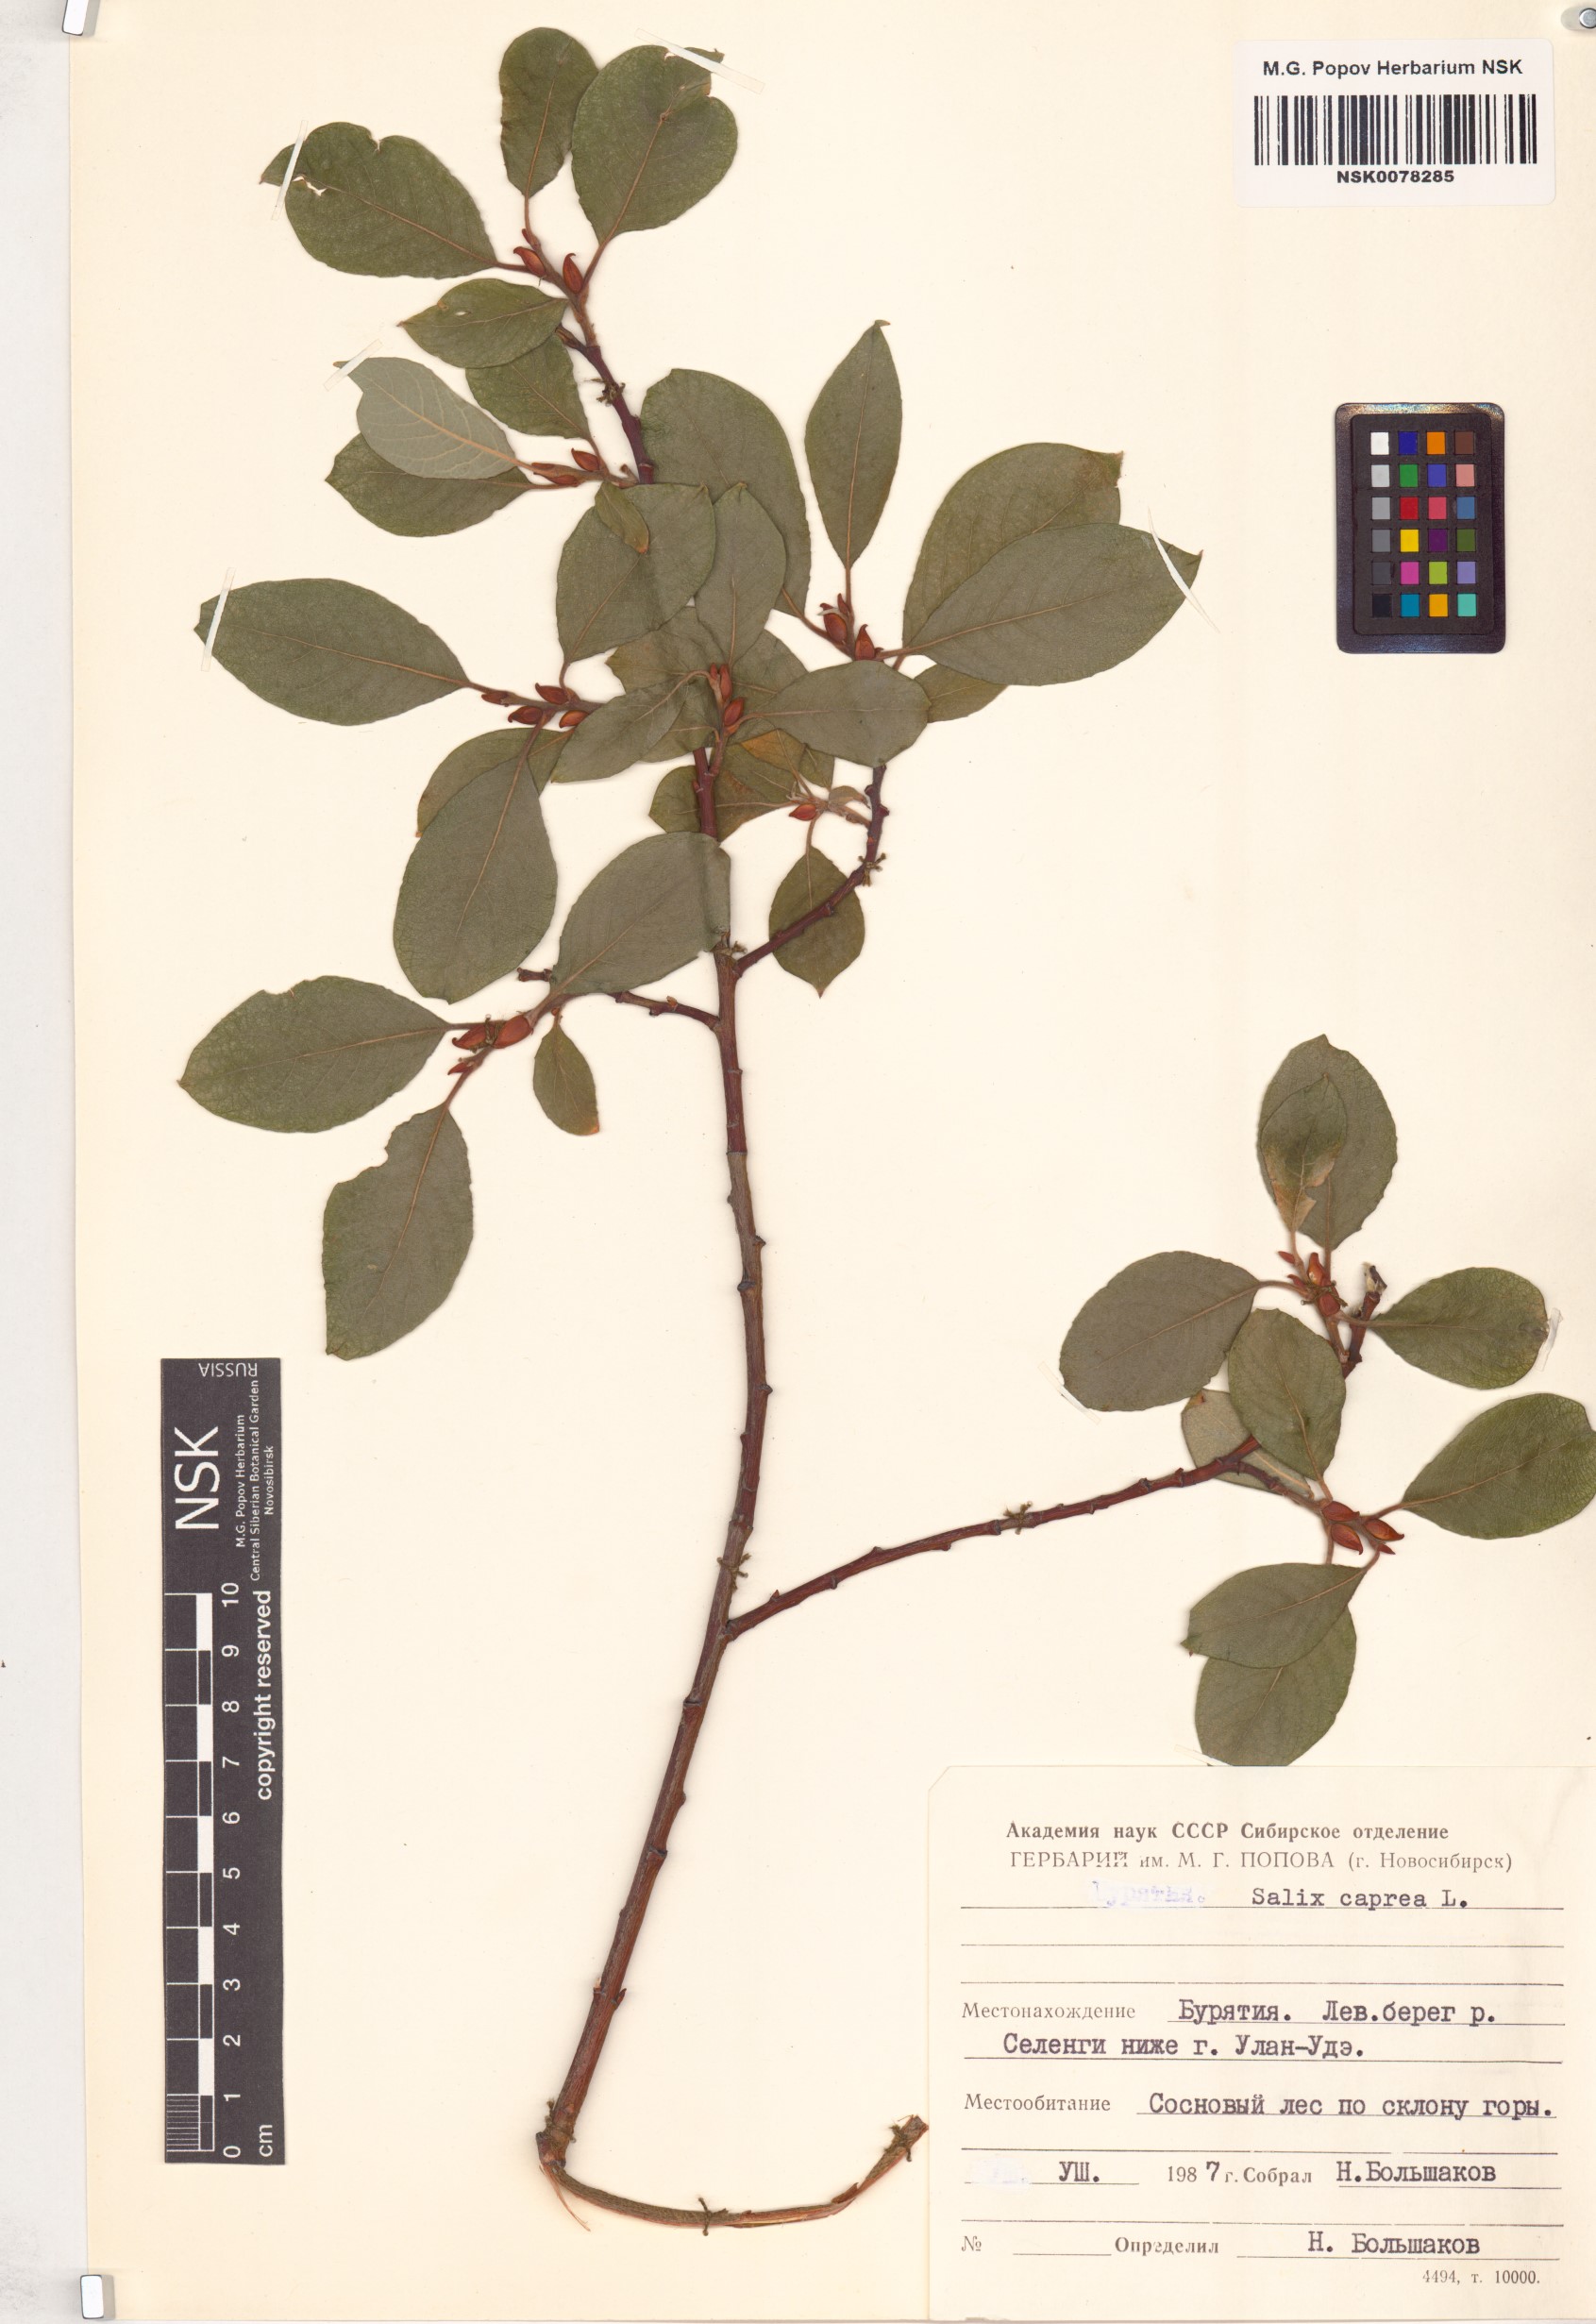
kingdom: Plantae
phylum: Tracheophyta
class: Magnoliopsida
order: Malpighiales
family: Salicaceae
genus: Salix
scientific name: Salix caprea
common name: Goat willow
